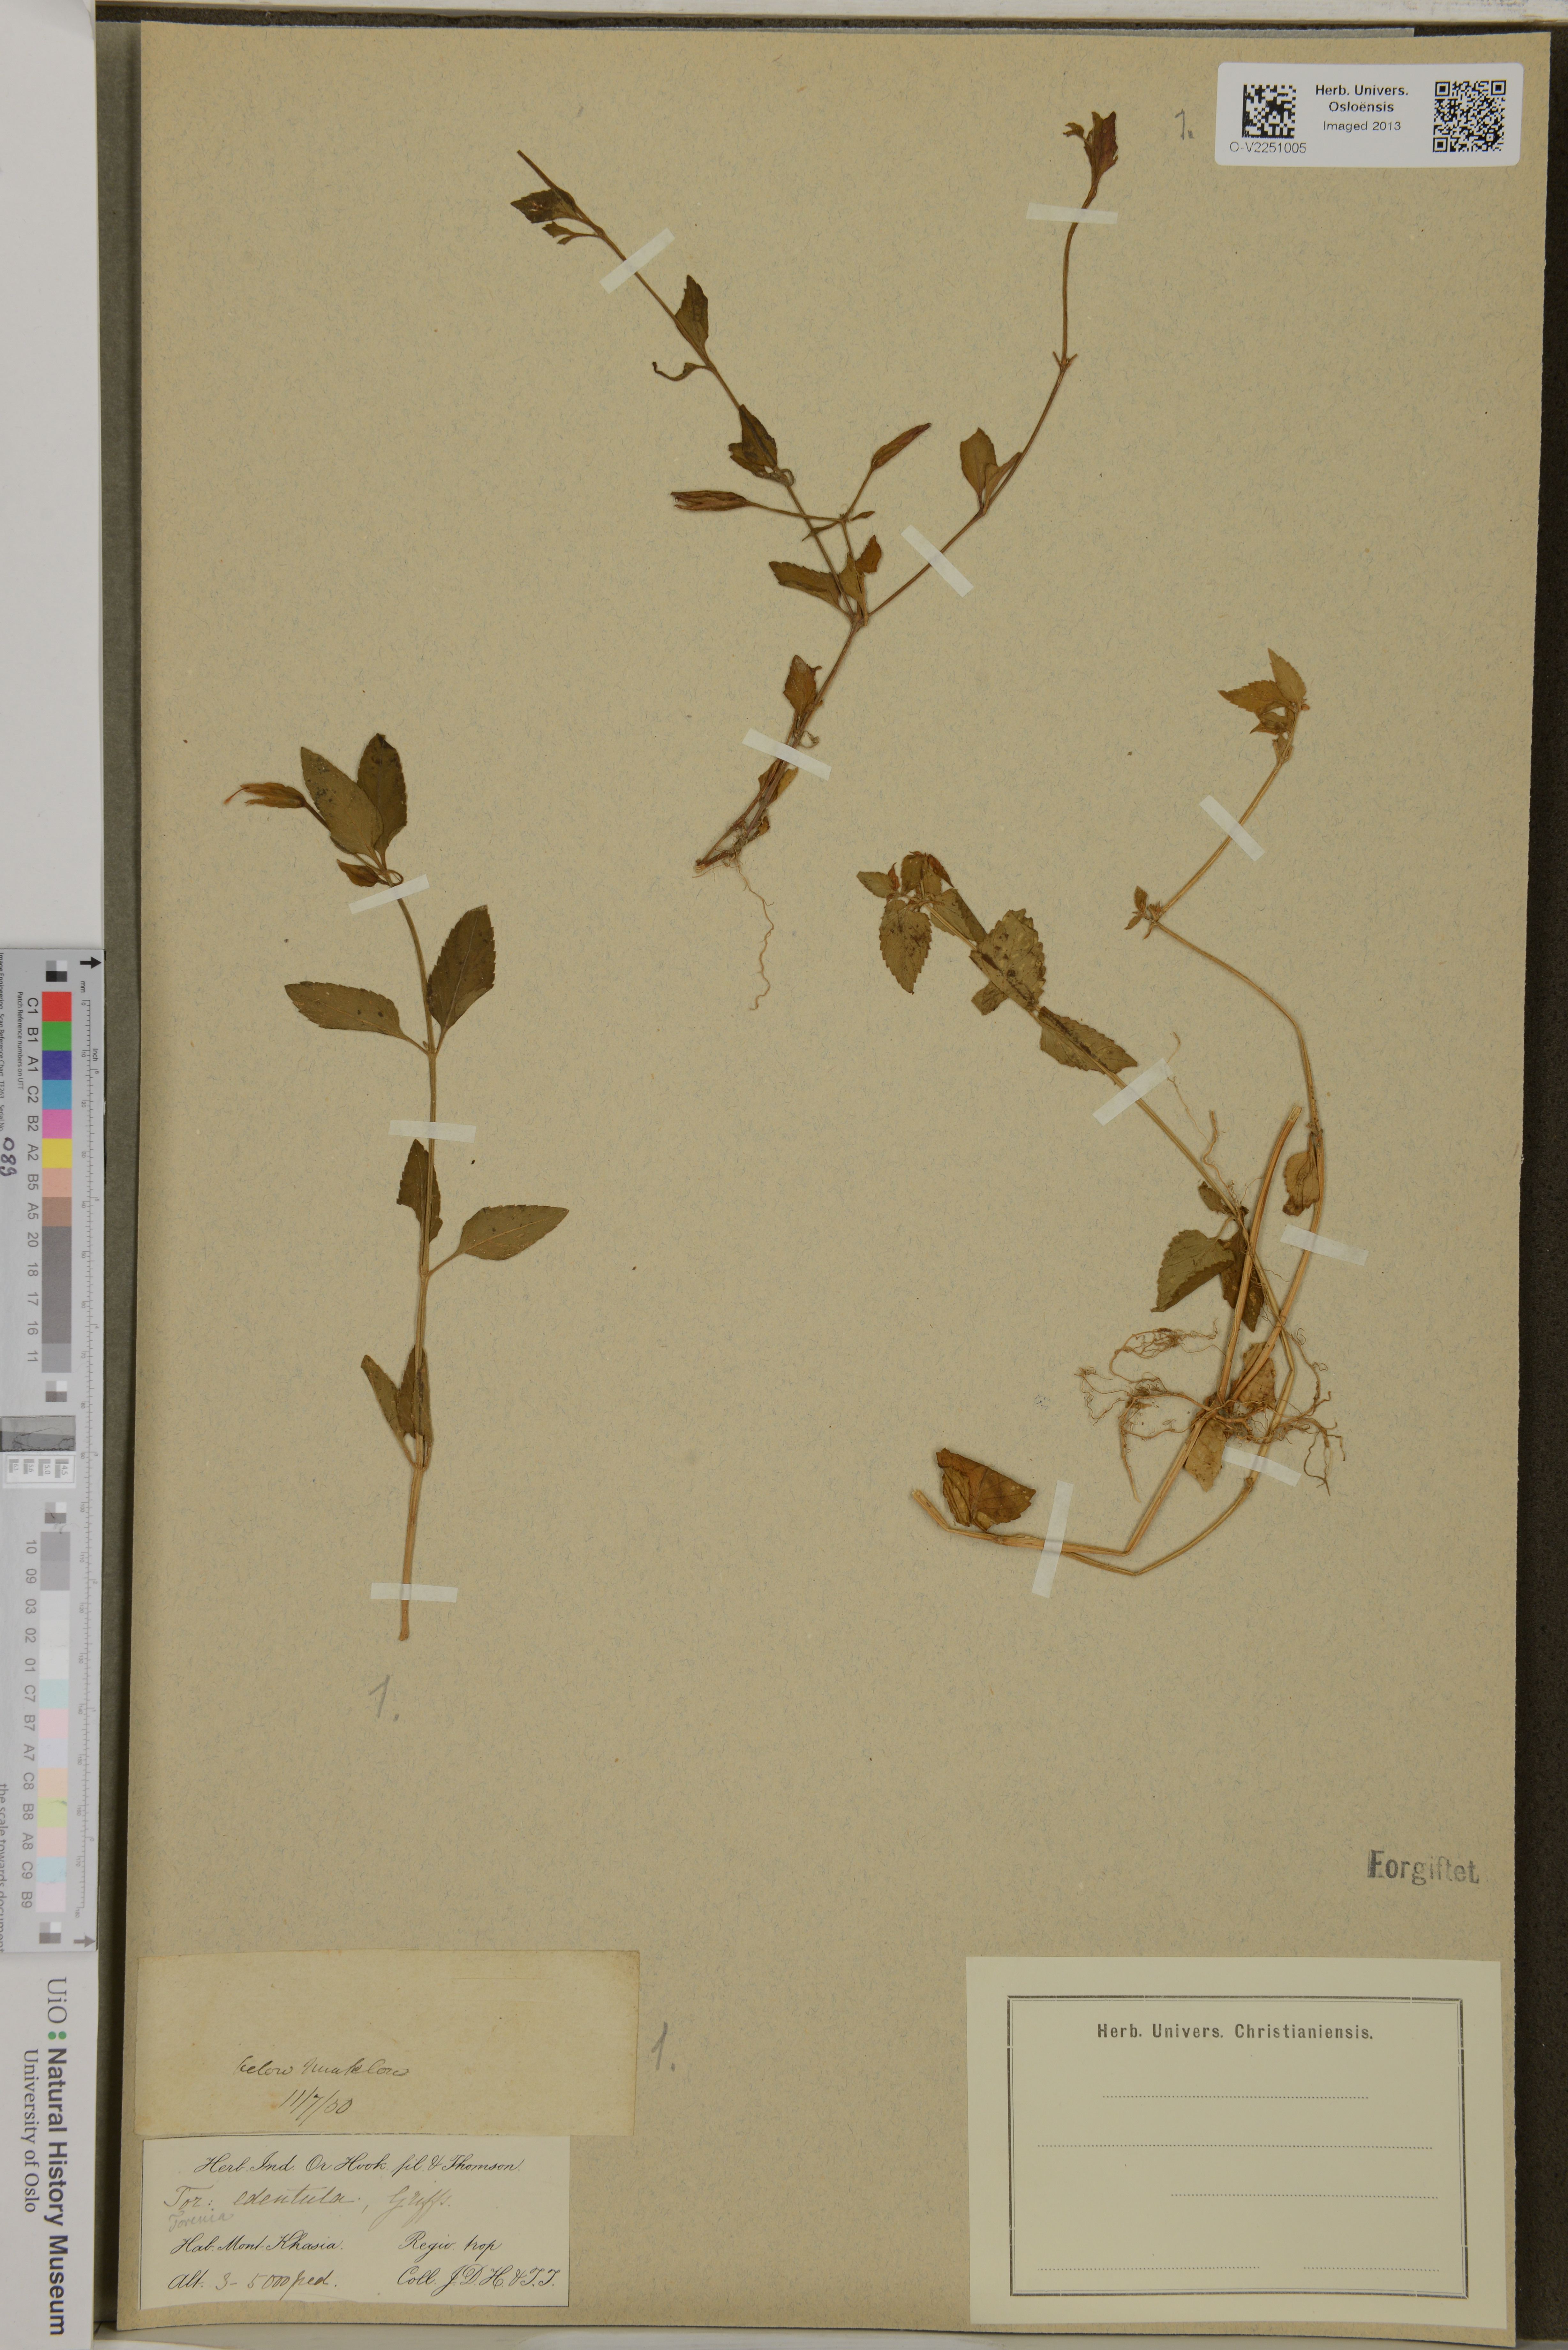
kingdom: Plantae
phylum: Tracheophyta
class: Magnoliopsida
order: Lamiales
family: Linderniaceae
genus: Torenia
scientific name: Torenia violacea
